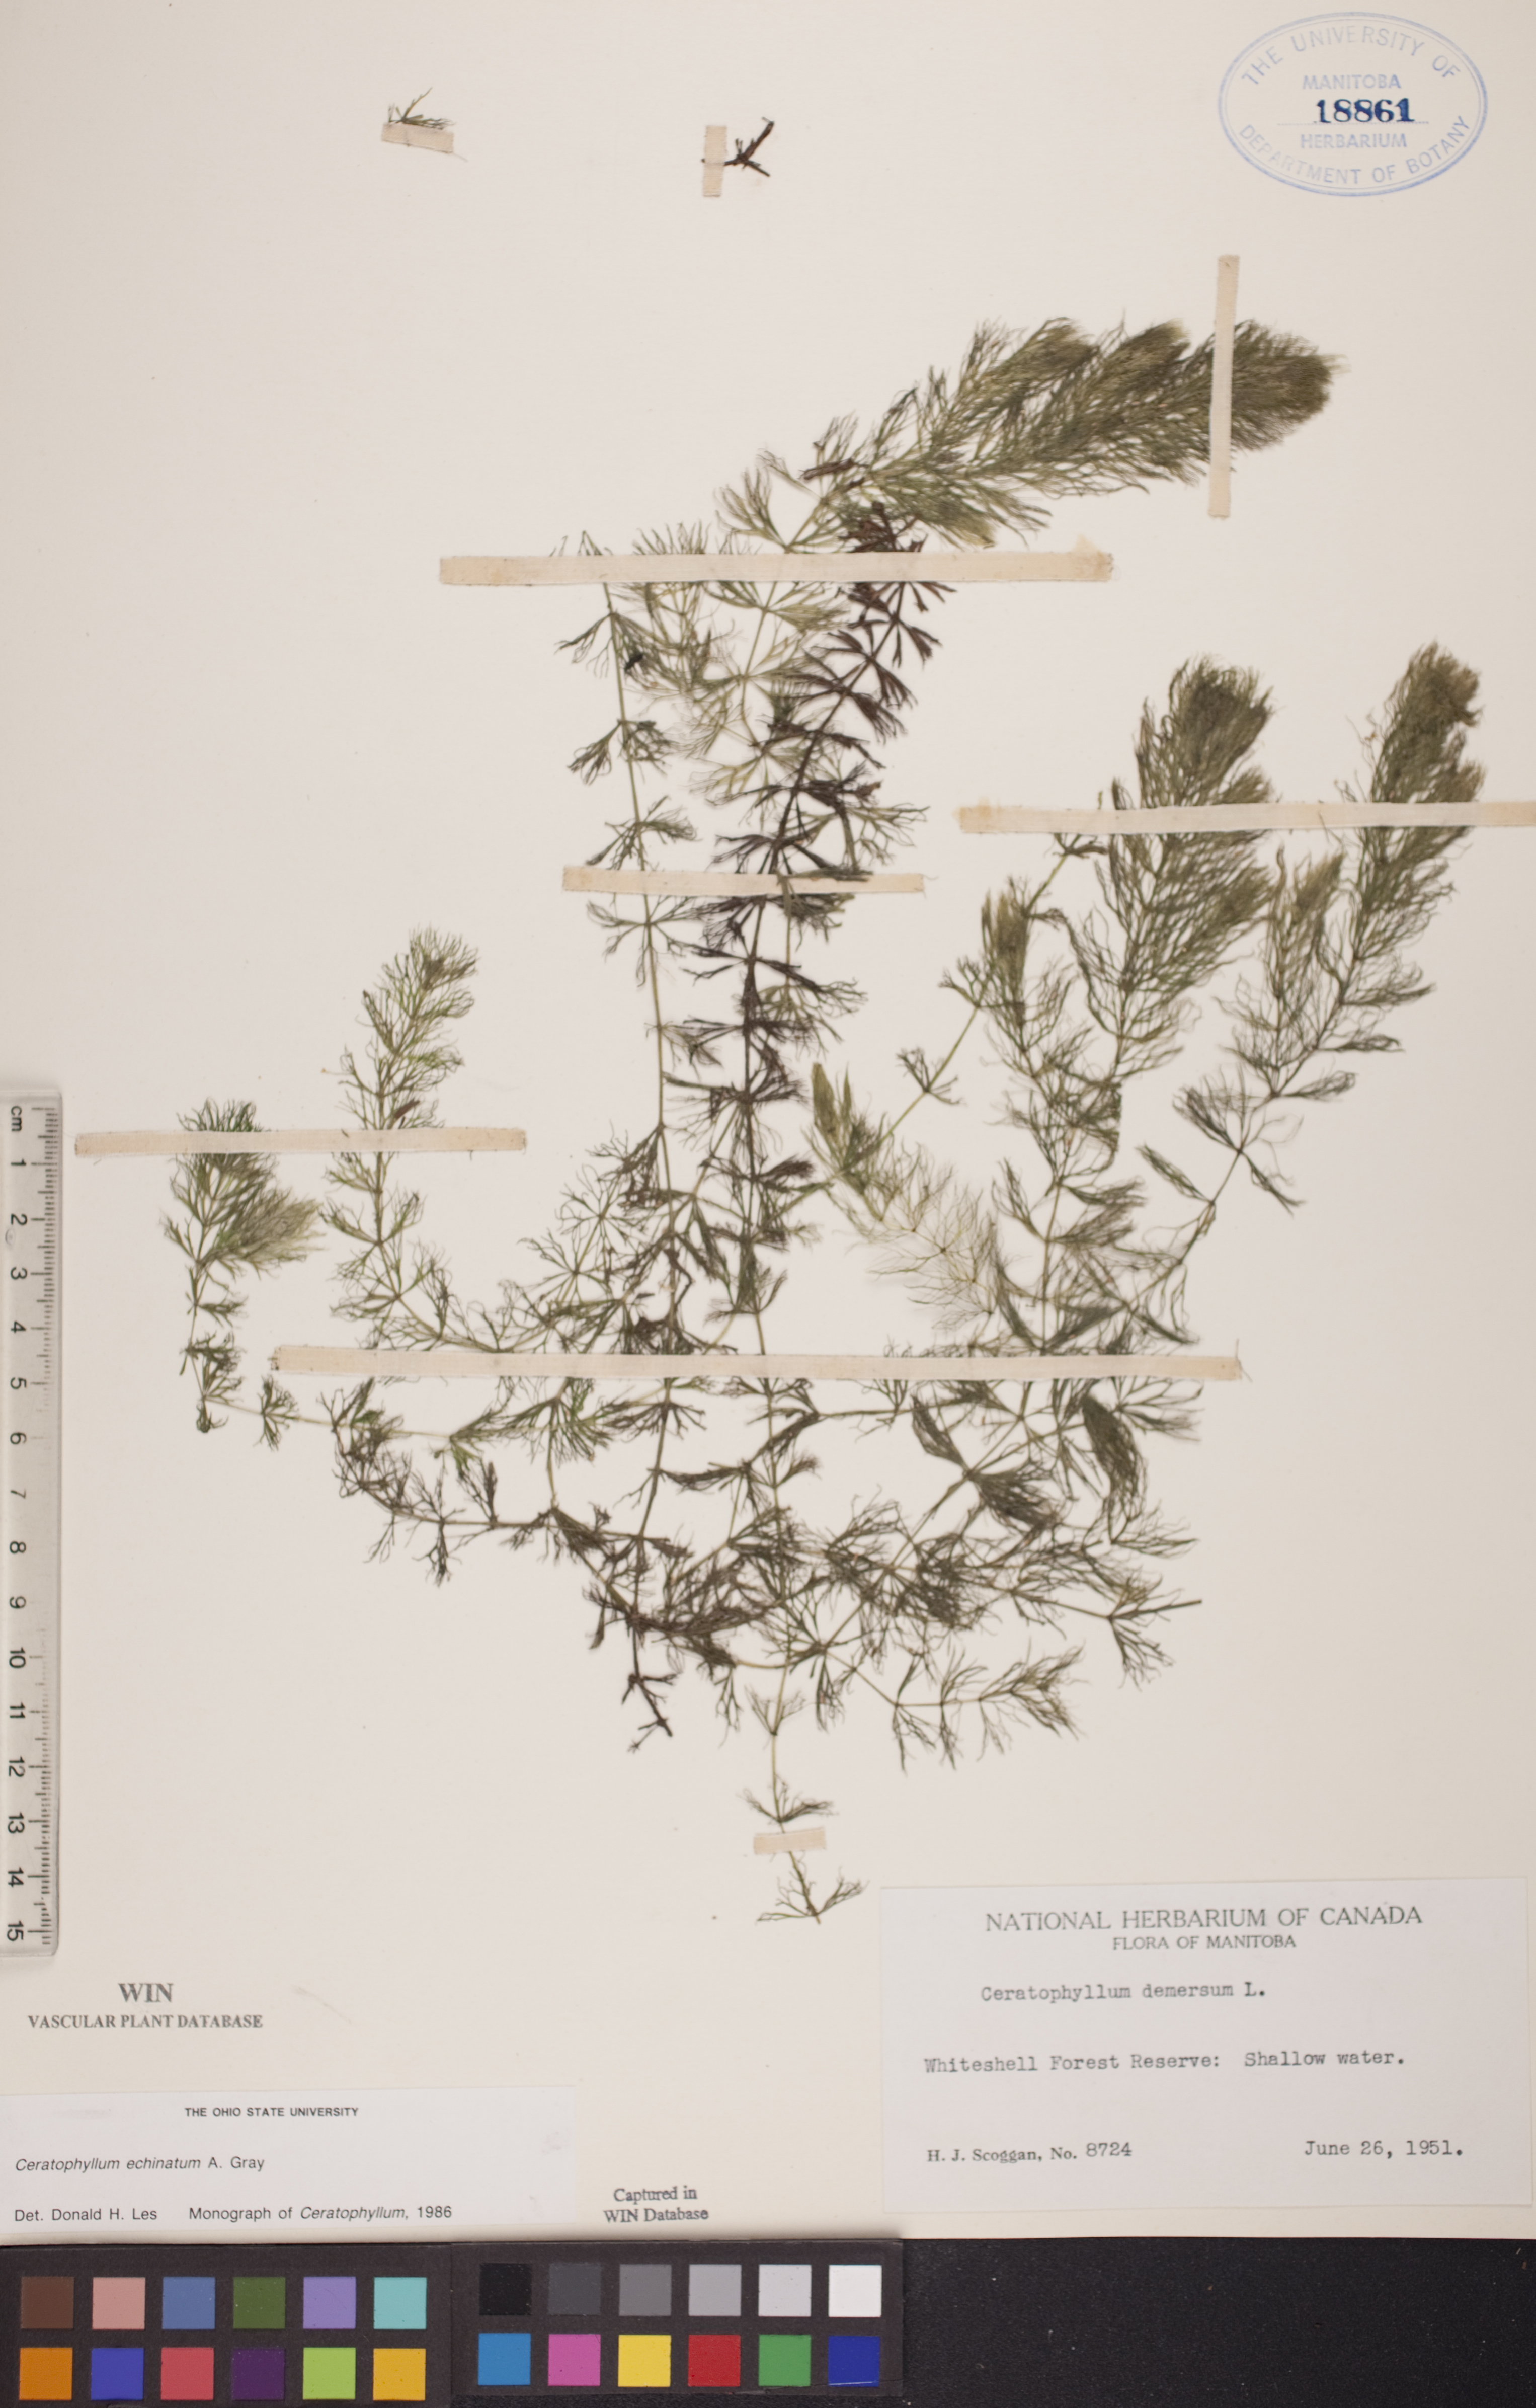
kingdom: Plantae
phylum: Tracheophyta
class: Magnoliopsida
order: Ceratophyllales
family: Ceratophyllaceae
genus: Ceratophyllum
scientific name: Ceratophyllum echinatum
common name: Prickly coontail
